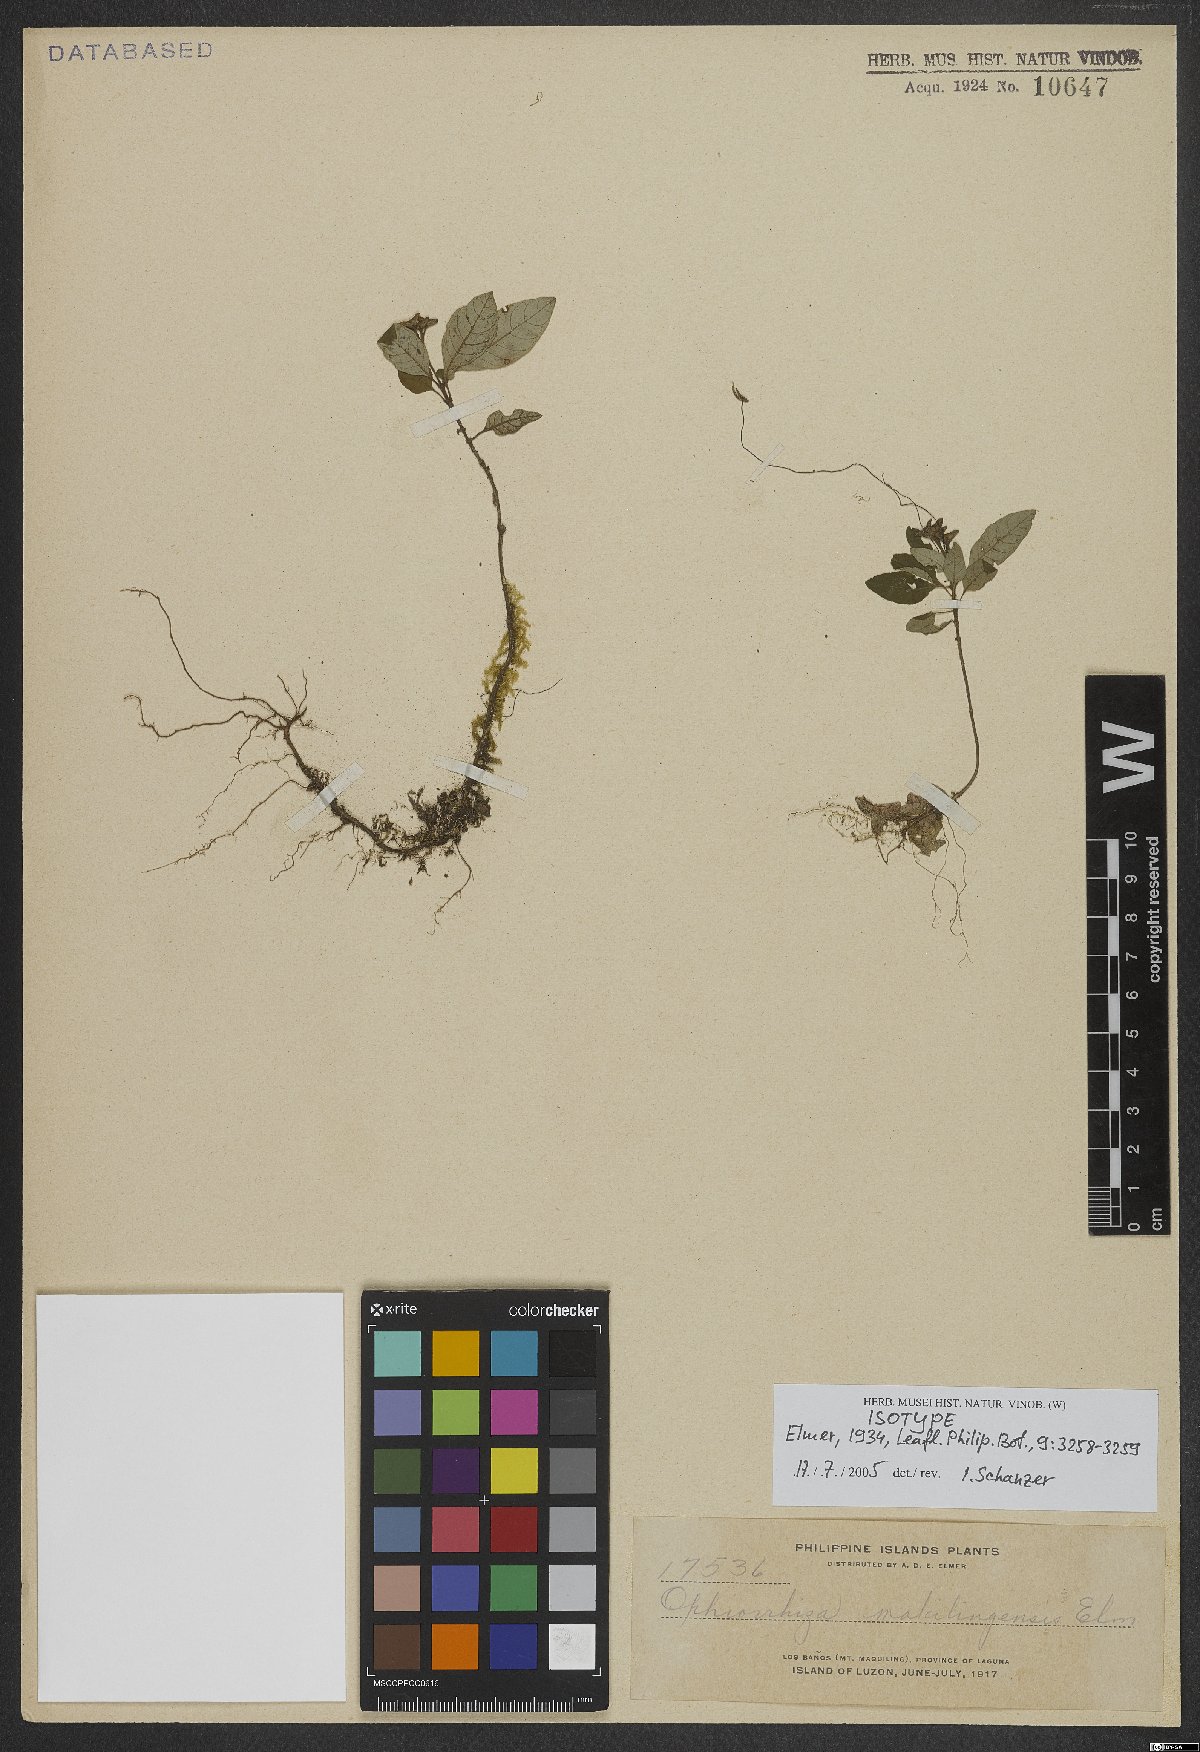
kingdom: Plantae
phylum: Tracheophyta
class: Magnoliopsida
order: Gentianales
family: Rubiaceae
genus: Ophiorrhiza
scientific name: Ophiorrhiza maquilingensis
